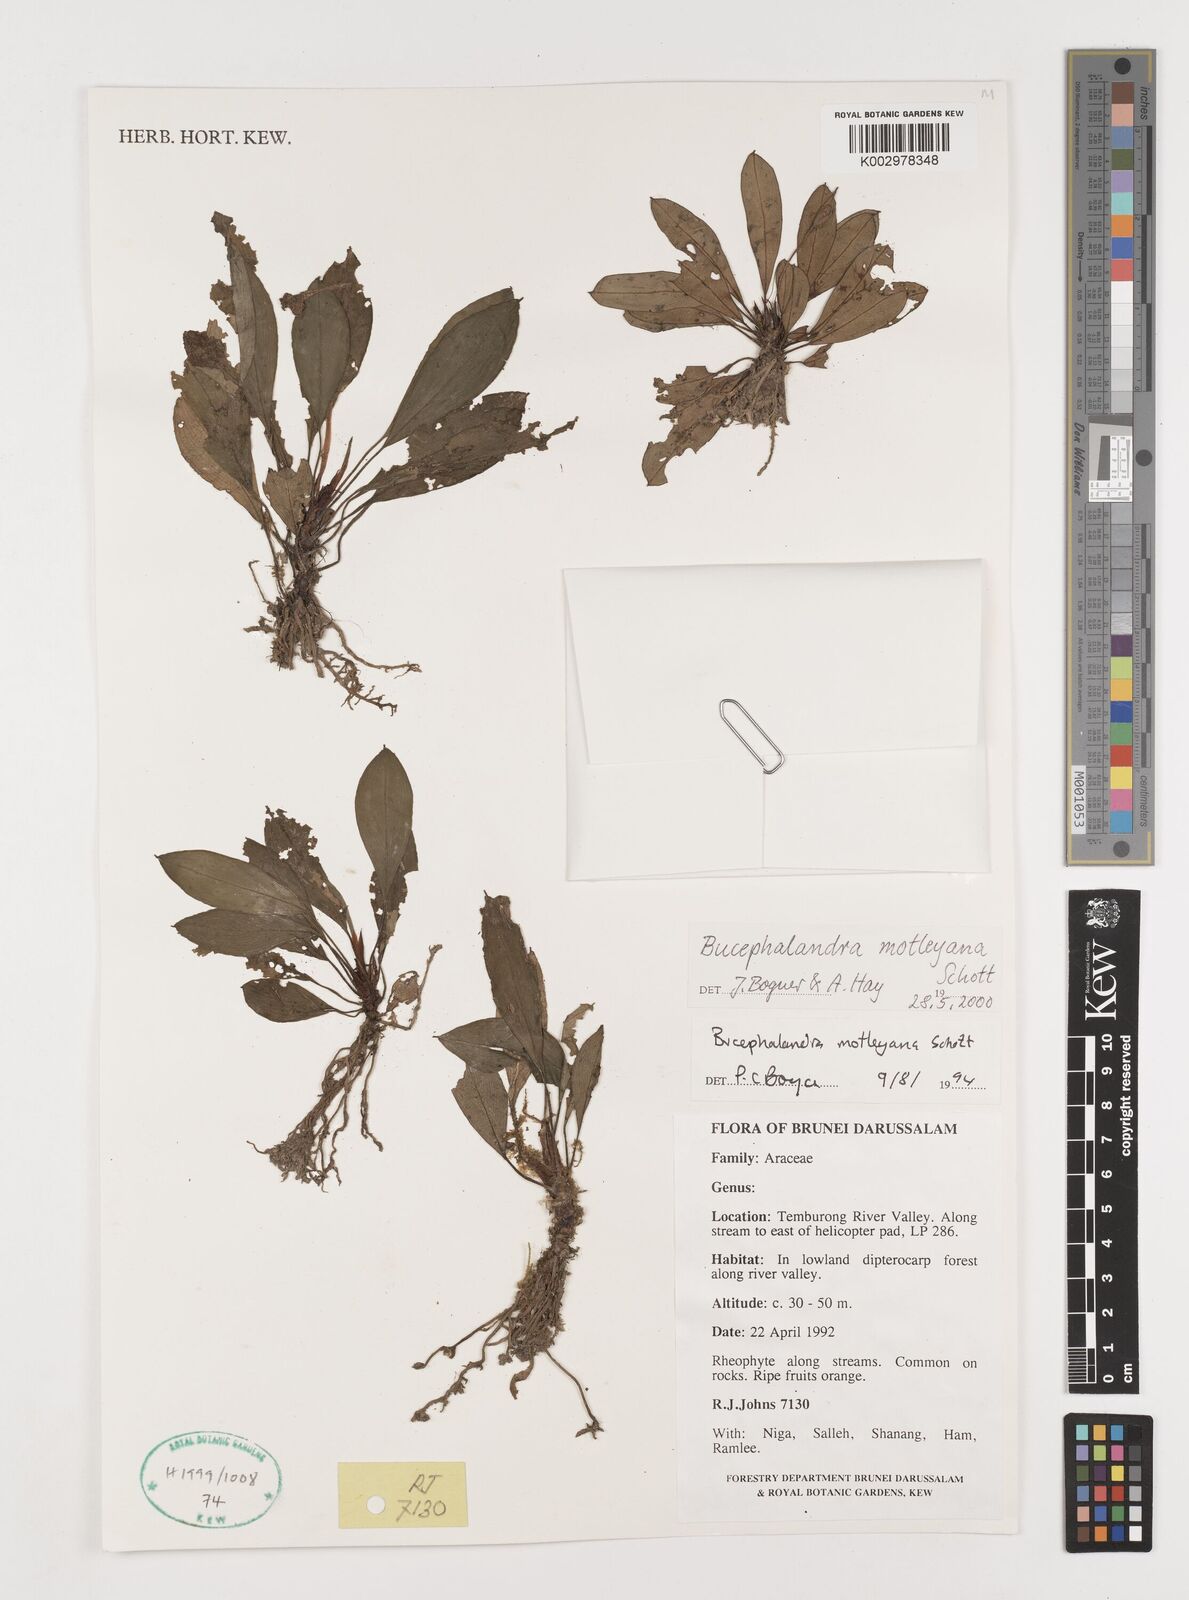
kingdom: Plantae
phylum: Tracheophyta
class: Liliopsida
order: Alismatales
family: Araceae
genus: Bucephalandra
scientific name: Bucephalandra motleyana
